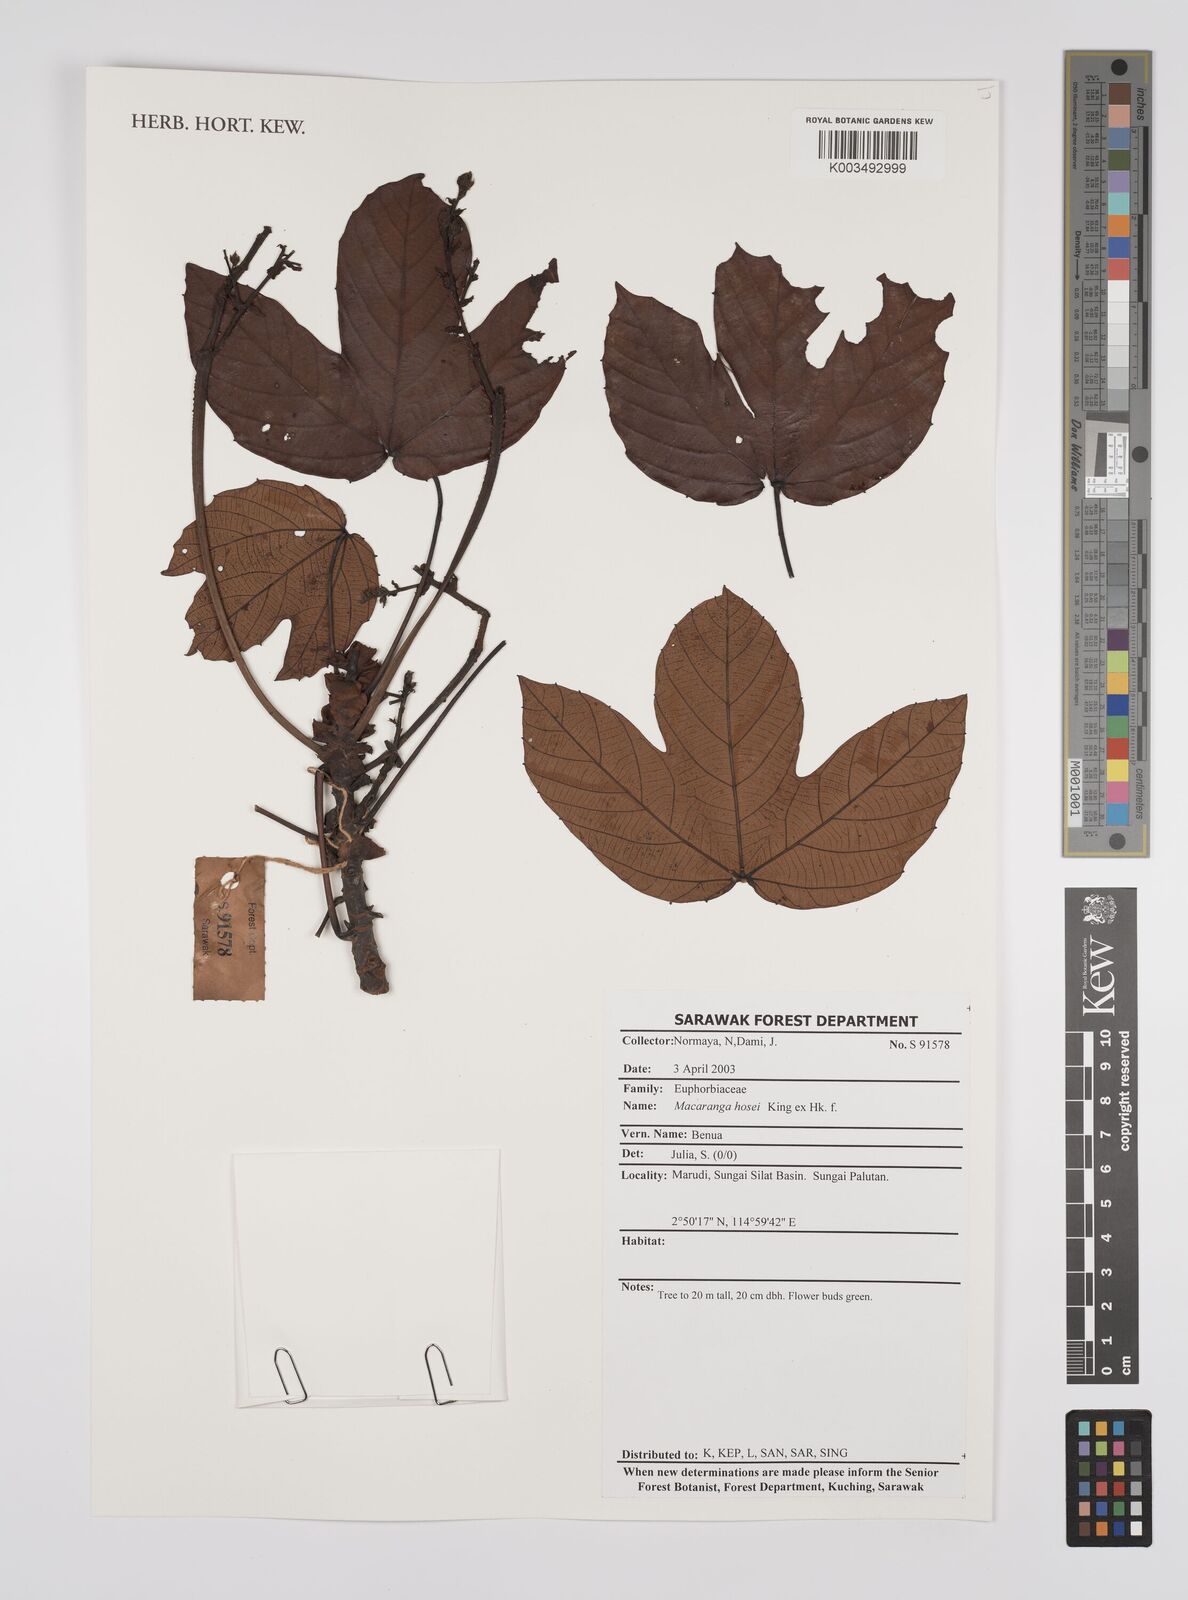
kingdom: Plantae
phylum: Tracheophyta
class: Magnoliopsida
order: Malpighiales
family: Euphorbiaceae
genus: Macaranga
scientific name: Macaranga hosei
